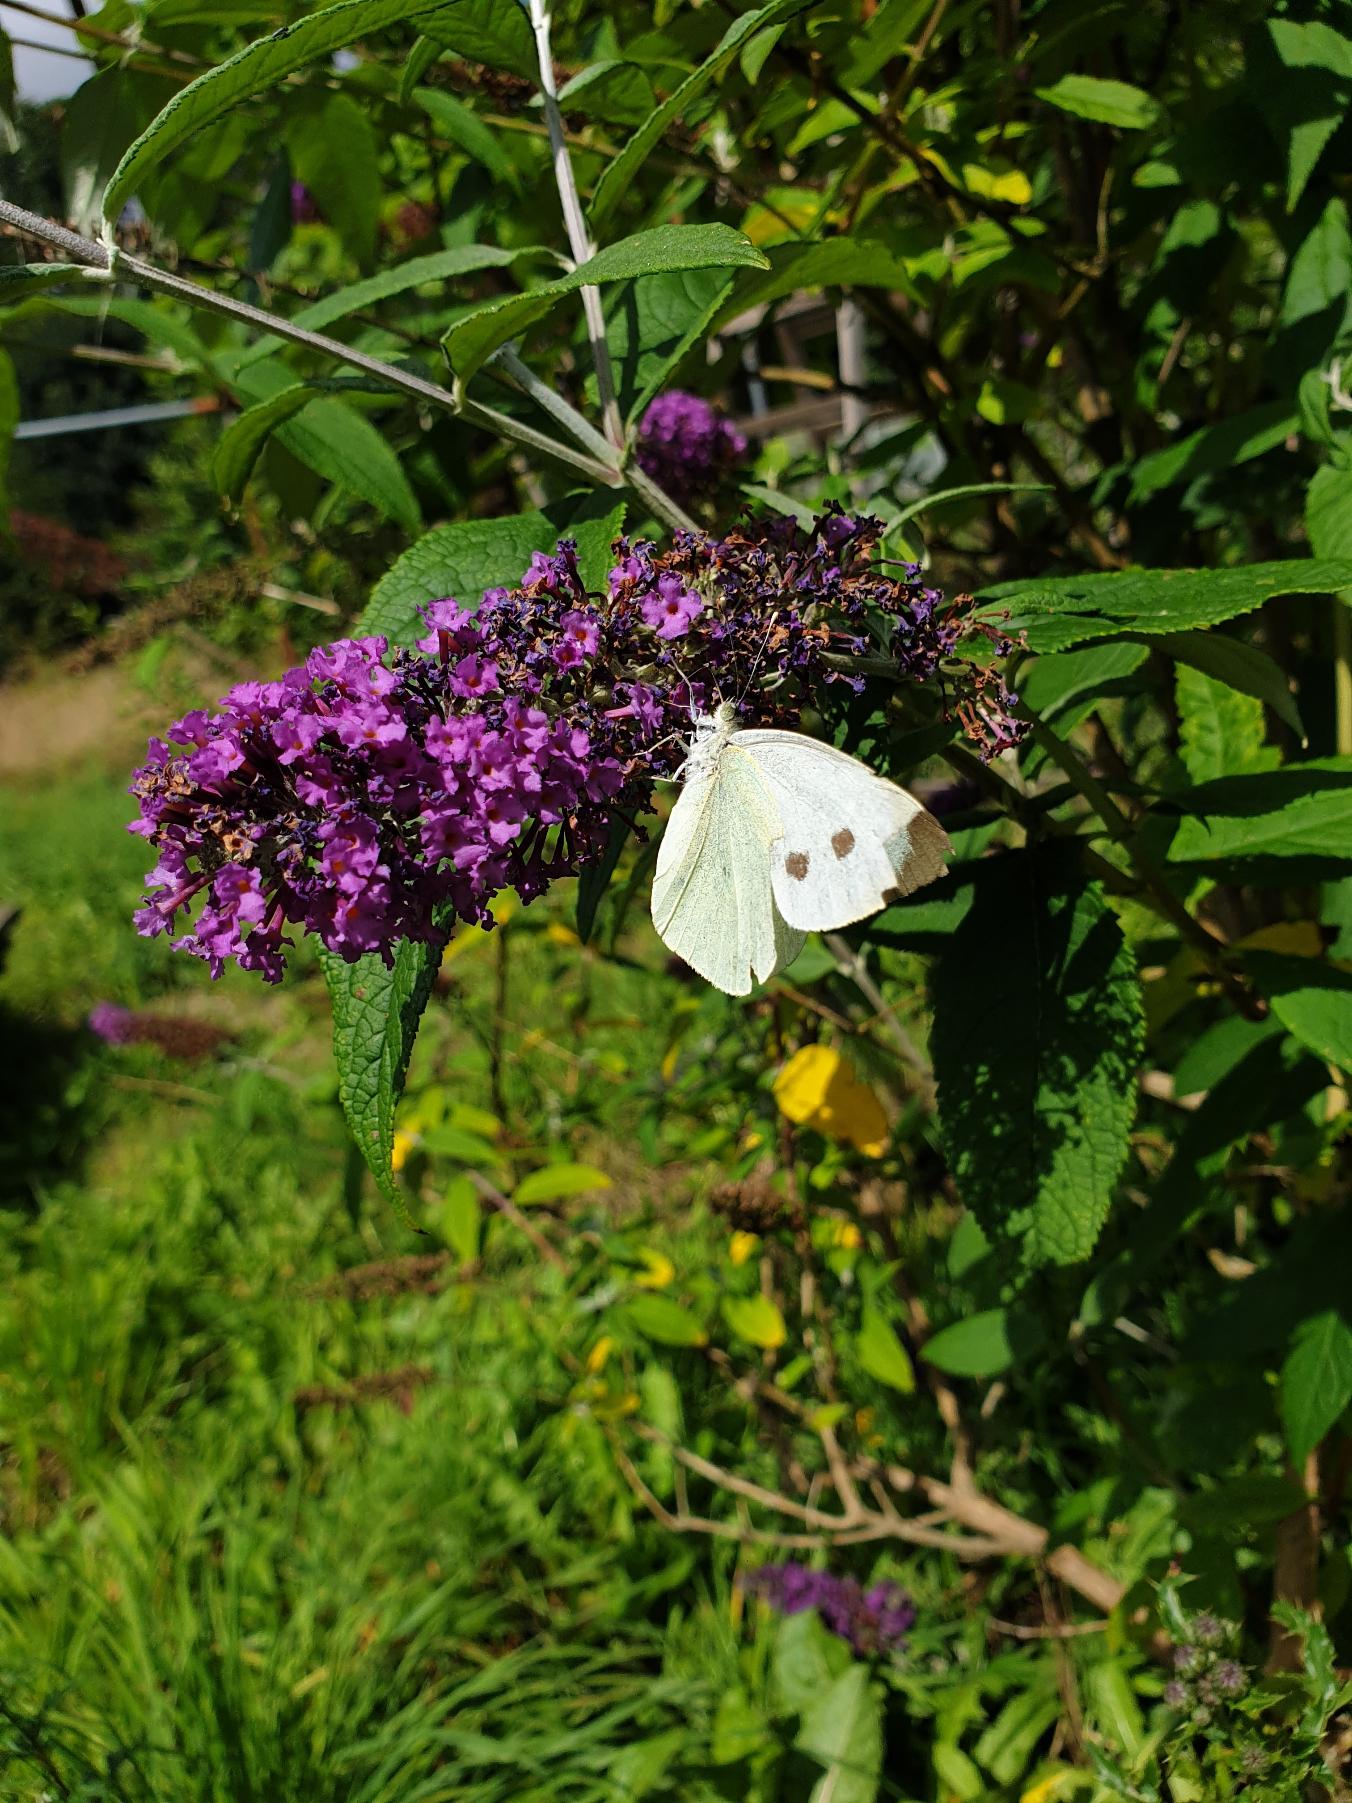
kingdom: Animalia
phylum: Arthropoda
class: Insecta
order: Lepidoptera
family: Pieridae
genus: Pieris
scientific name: Pieris brassicae
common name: Stor kålsommerfugl
